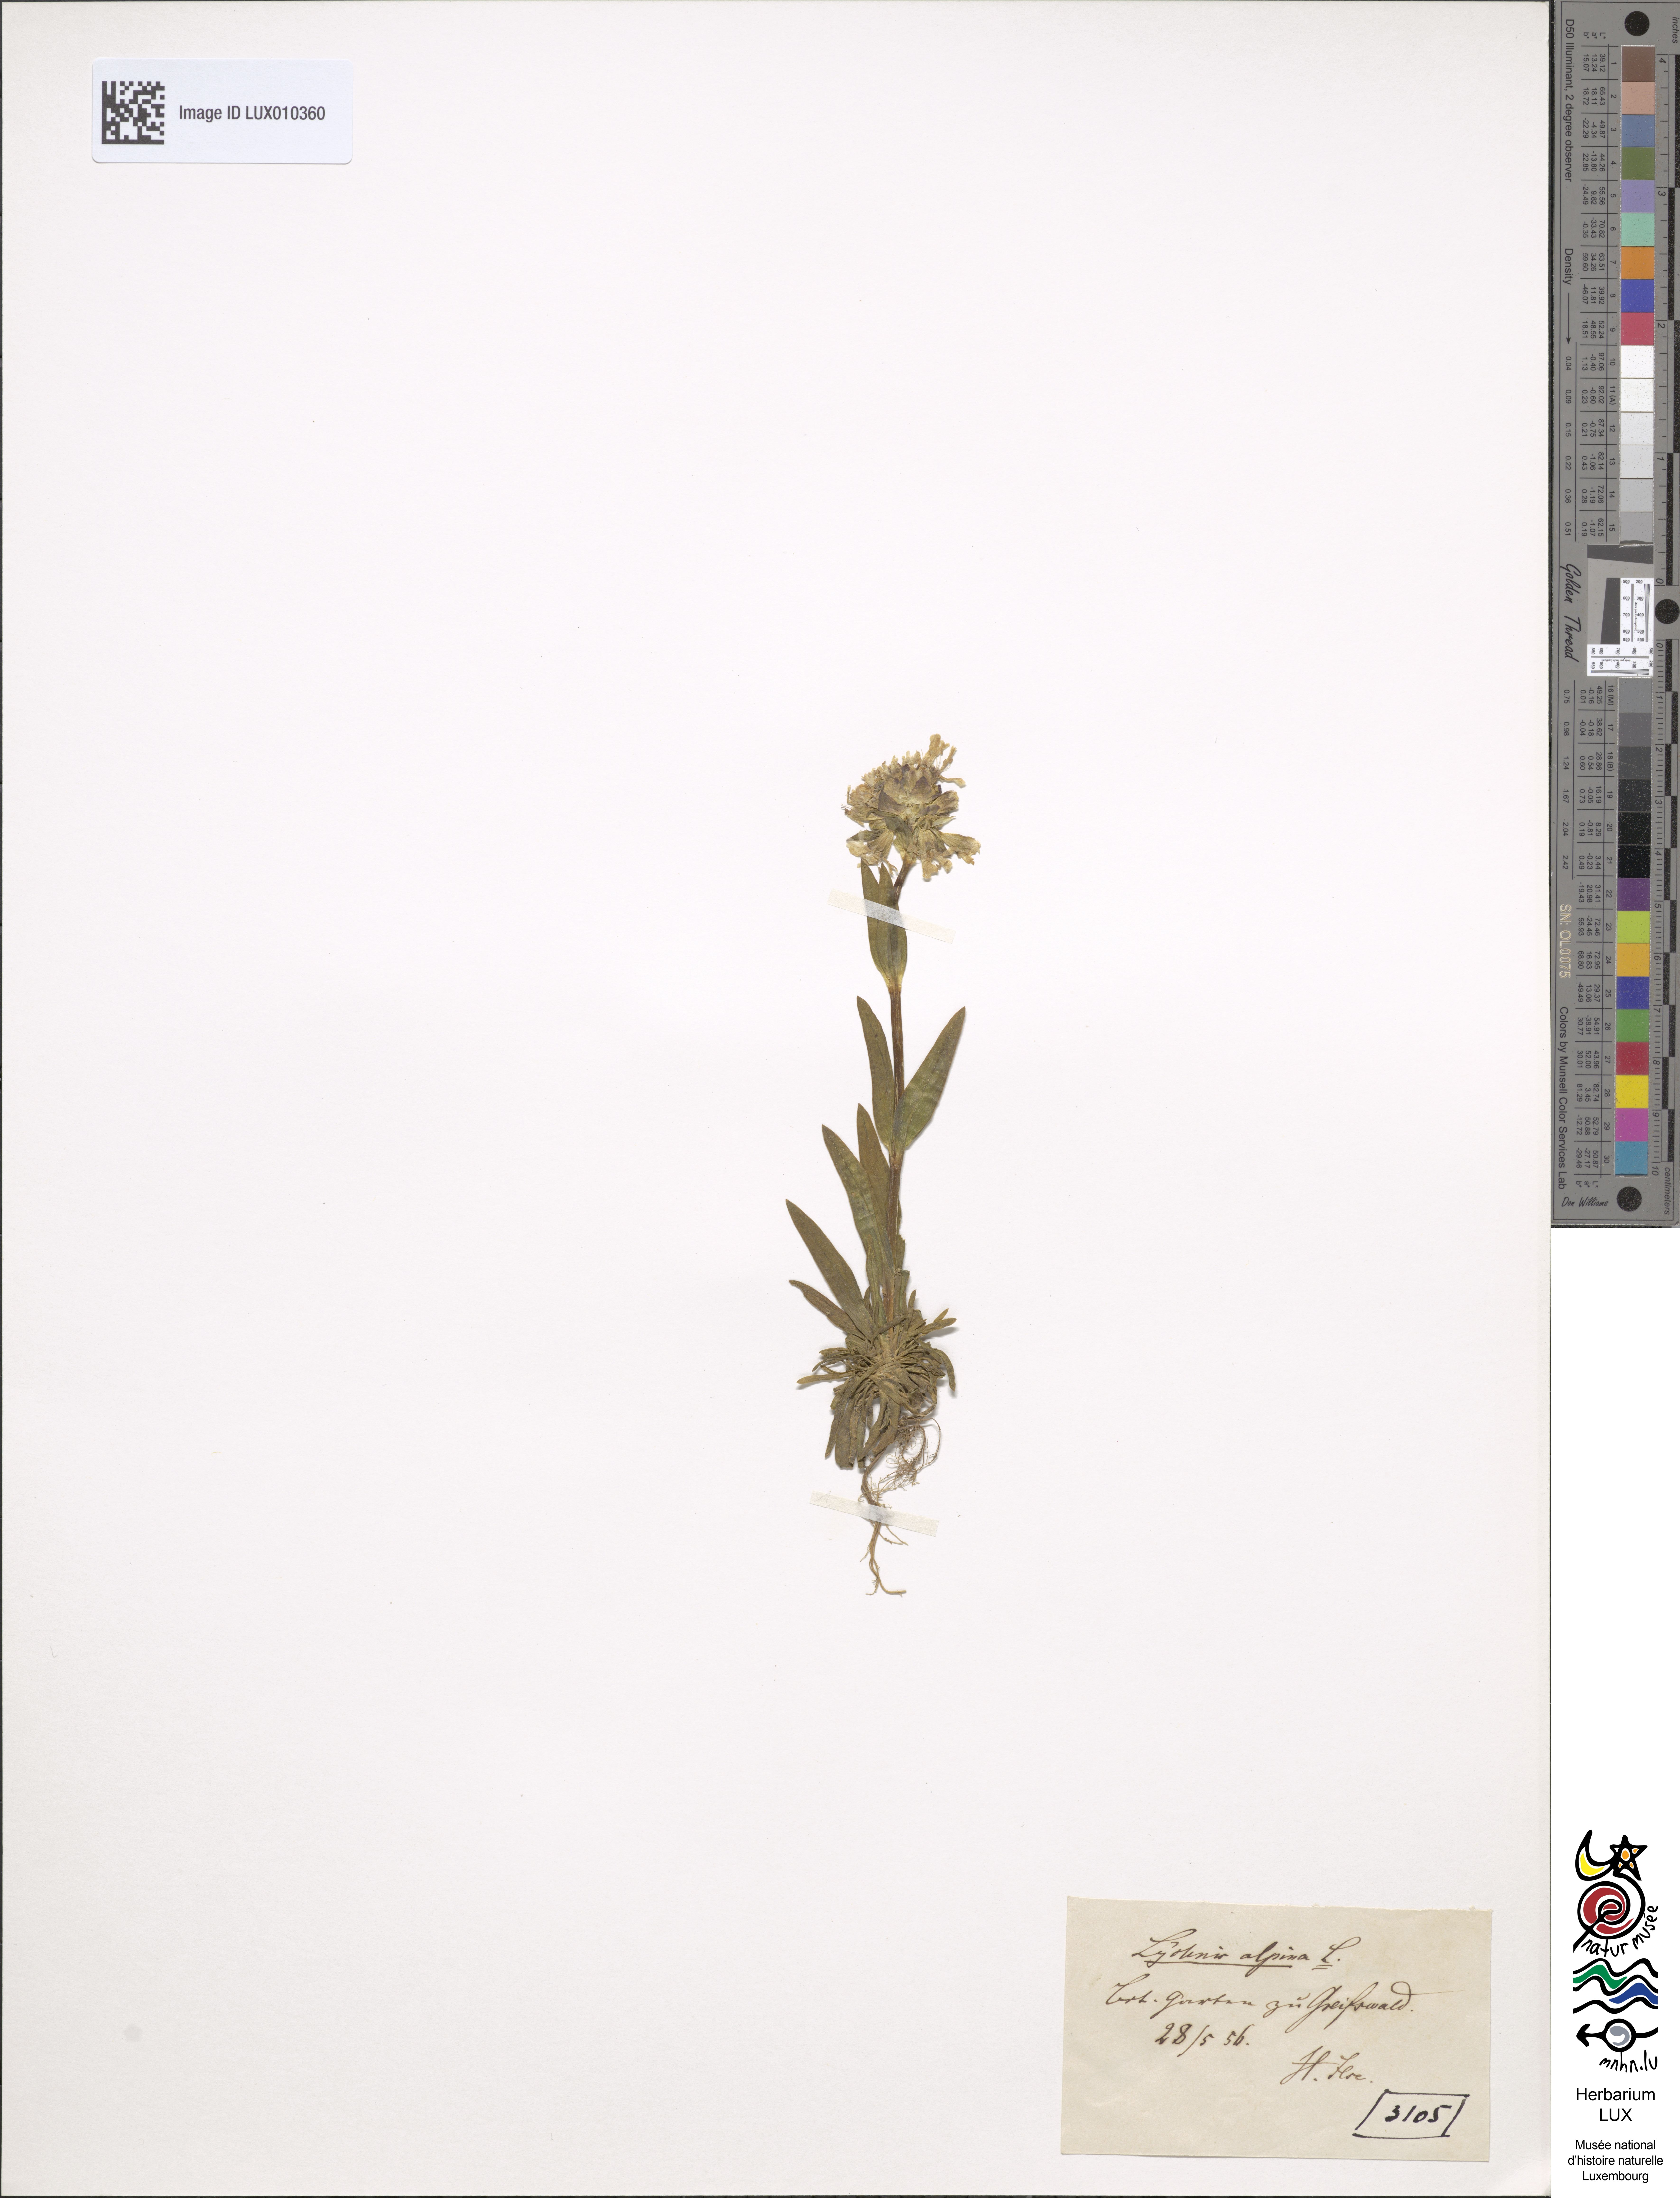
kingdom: Plantae
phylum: Tracheophyta
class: Magnoliopsida
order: Caryophyllales
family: Caryophyllaceae
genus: Viscaria
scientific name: Viscaria alpina
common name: Alpine campion
